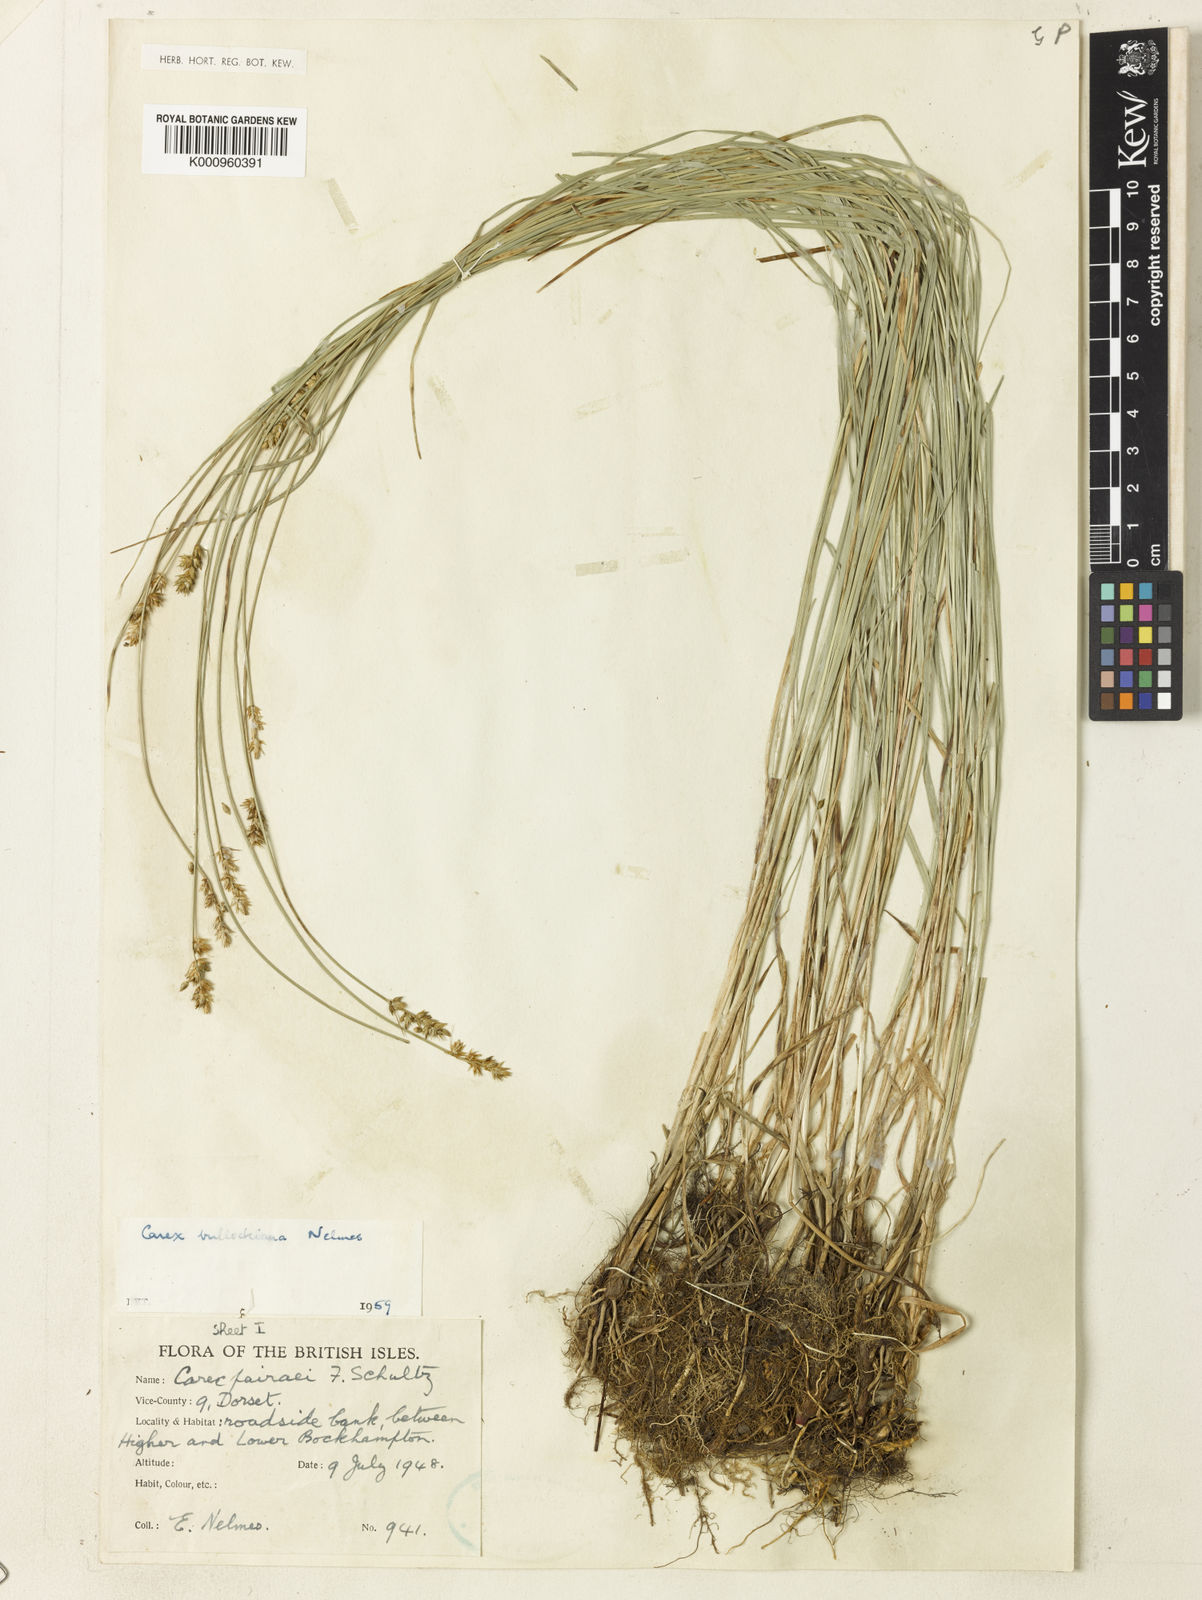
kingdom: Plantae
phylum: Tracheophyta
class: Liliopsida
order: Poales
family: Cyperaceae
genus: Carex
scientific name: Carex muricata
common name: Rough sedge
